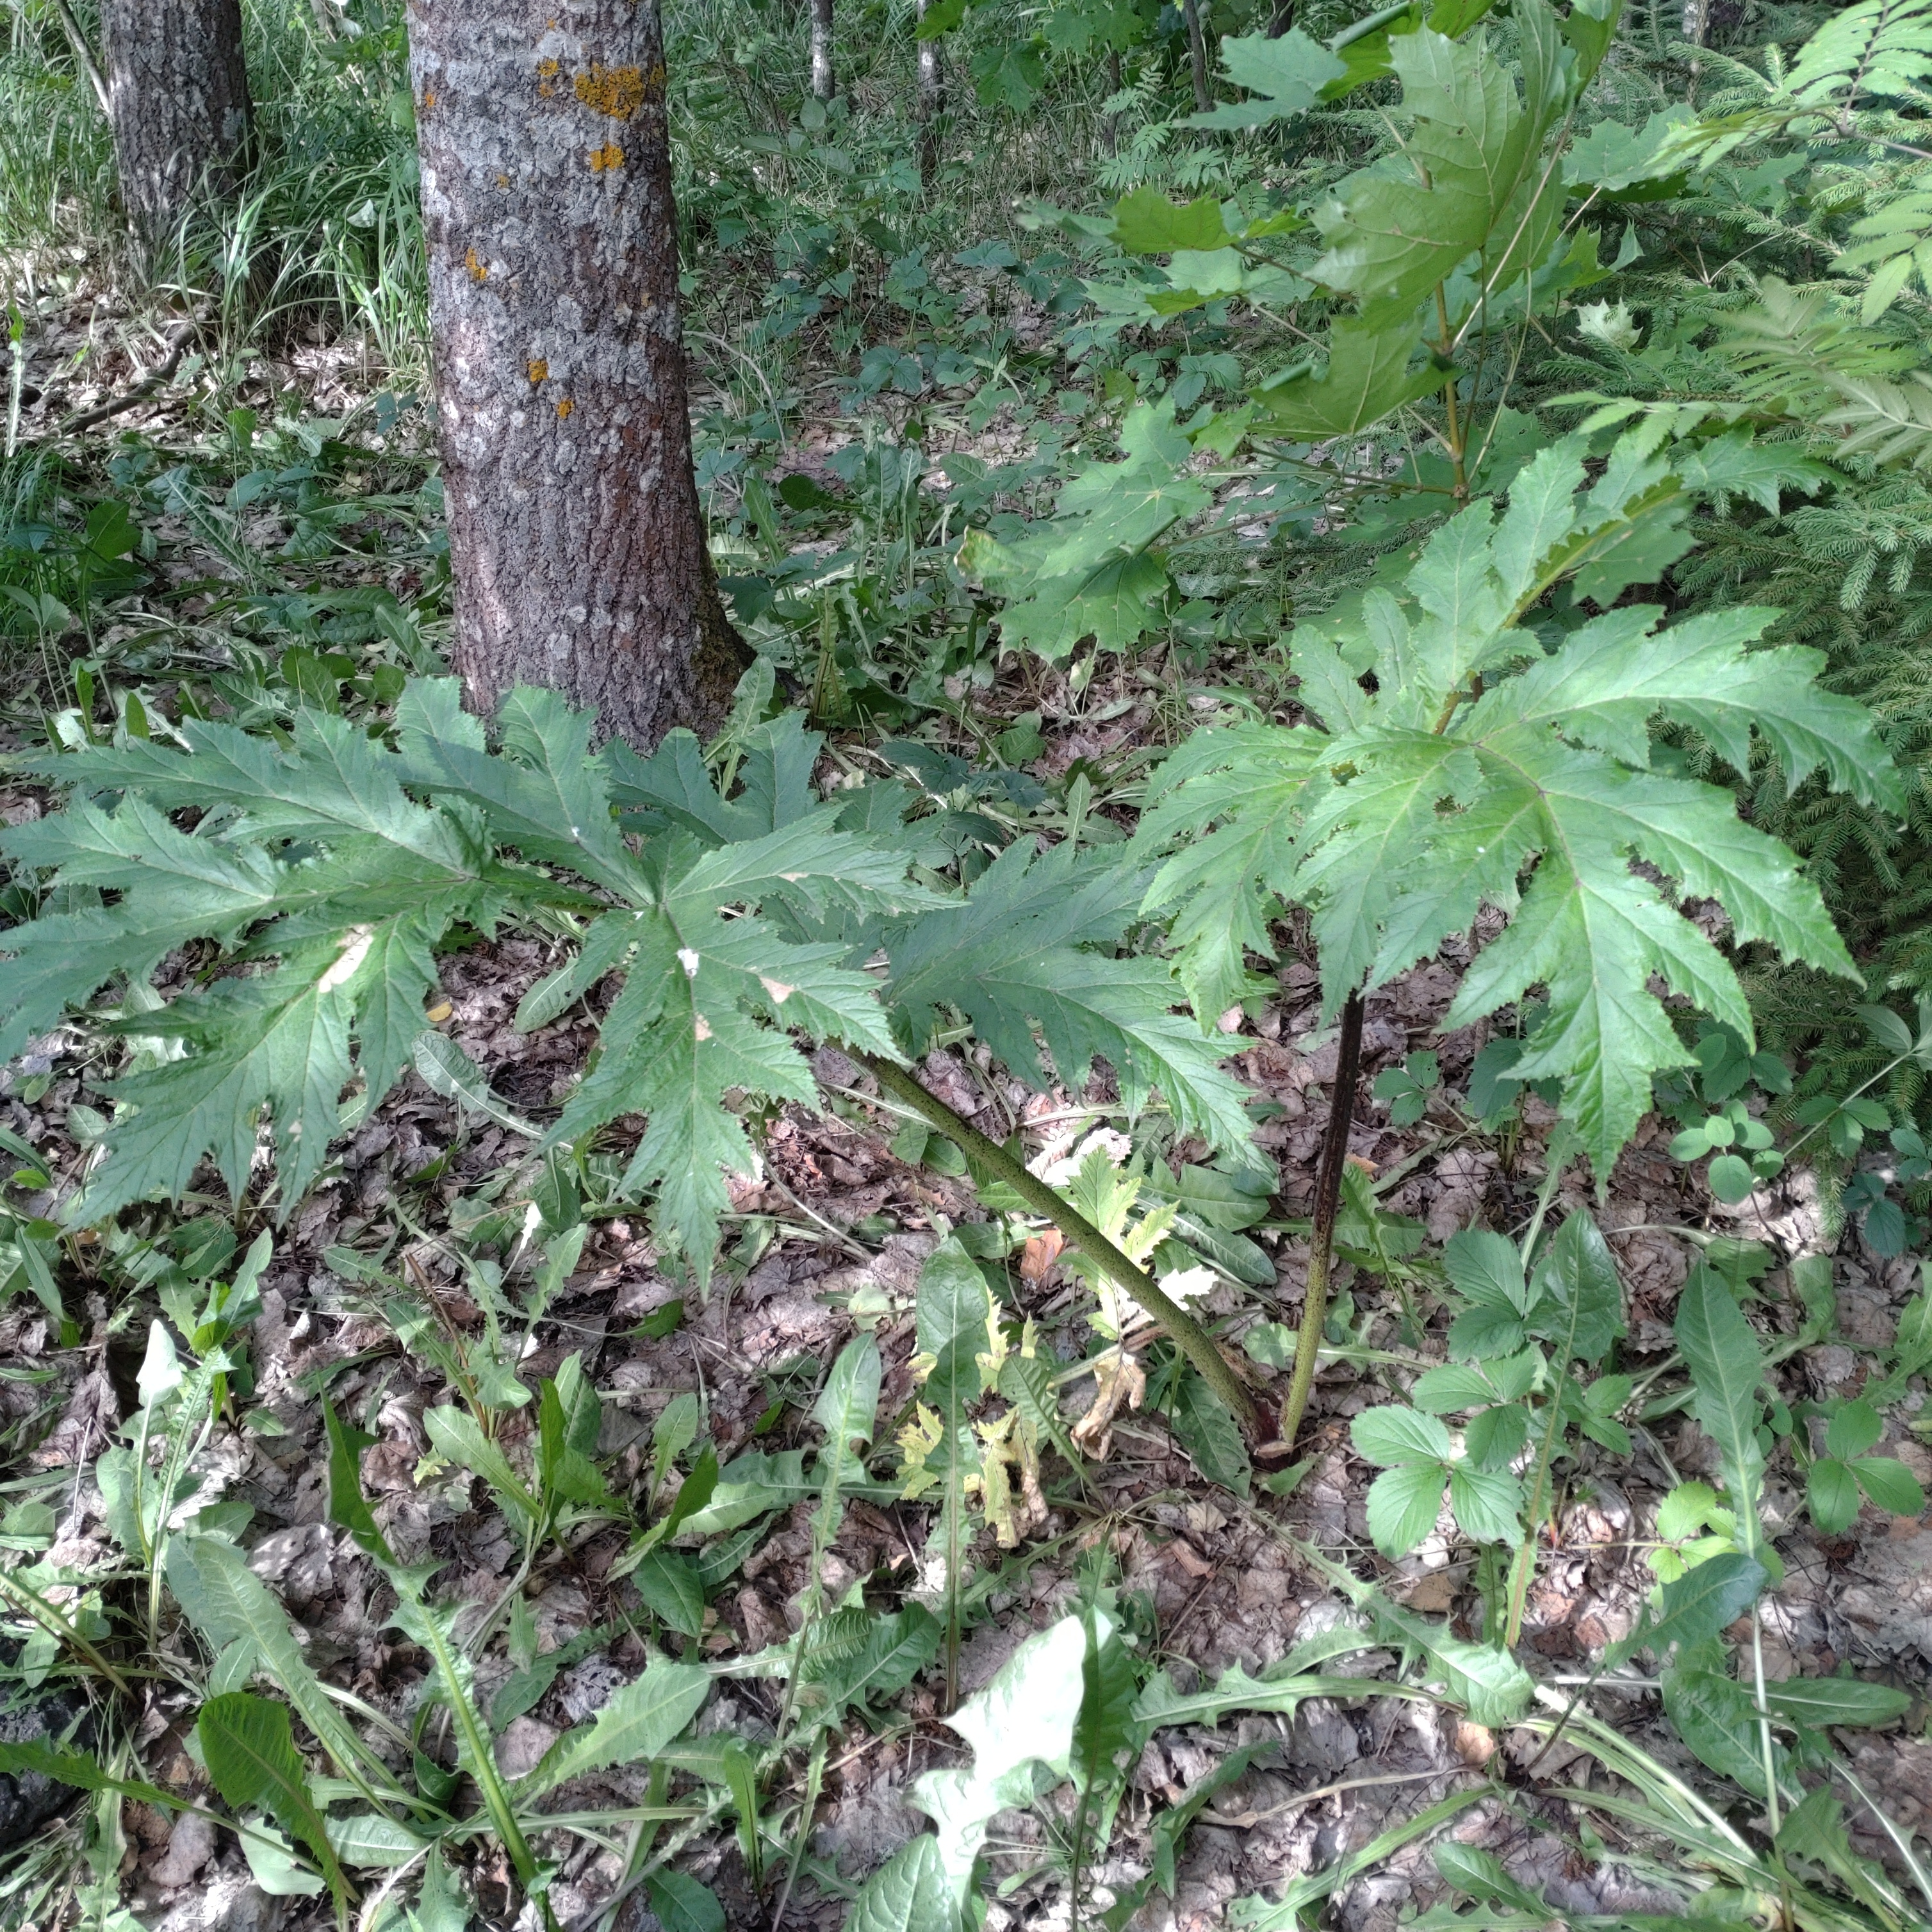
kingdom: Plantae
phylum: Tracheophyta
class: Magnoliopsida
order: Apiales
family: Apiaceae
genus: Heracleum
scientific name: Heracleum
